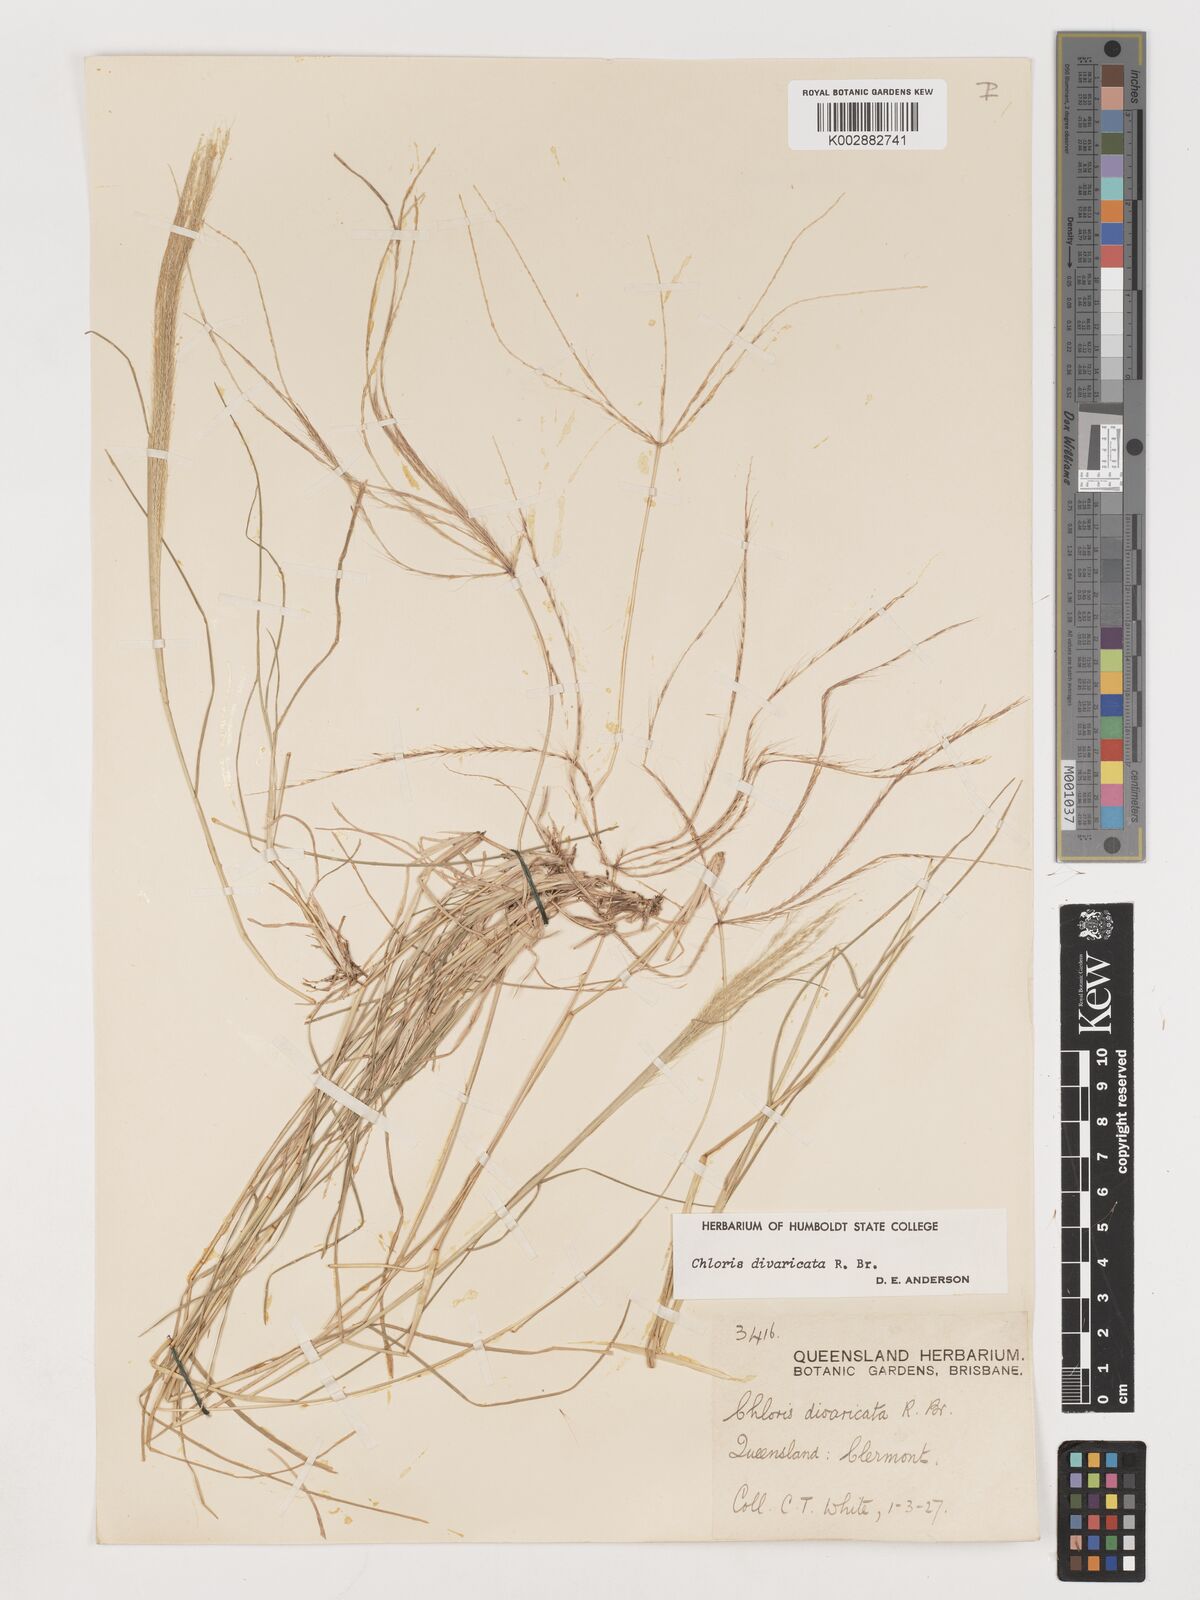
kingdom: Plantae
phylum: Tracheophyta
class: Liliopsida
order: Poales
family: Poaceae
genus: Chloris
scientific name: Chloris divaricata
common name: Spreading windmill grass
